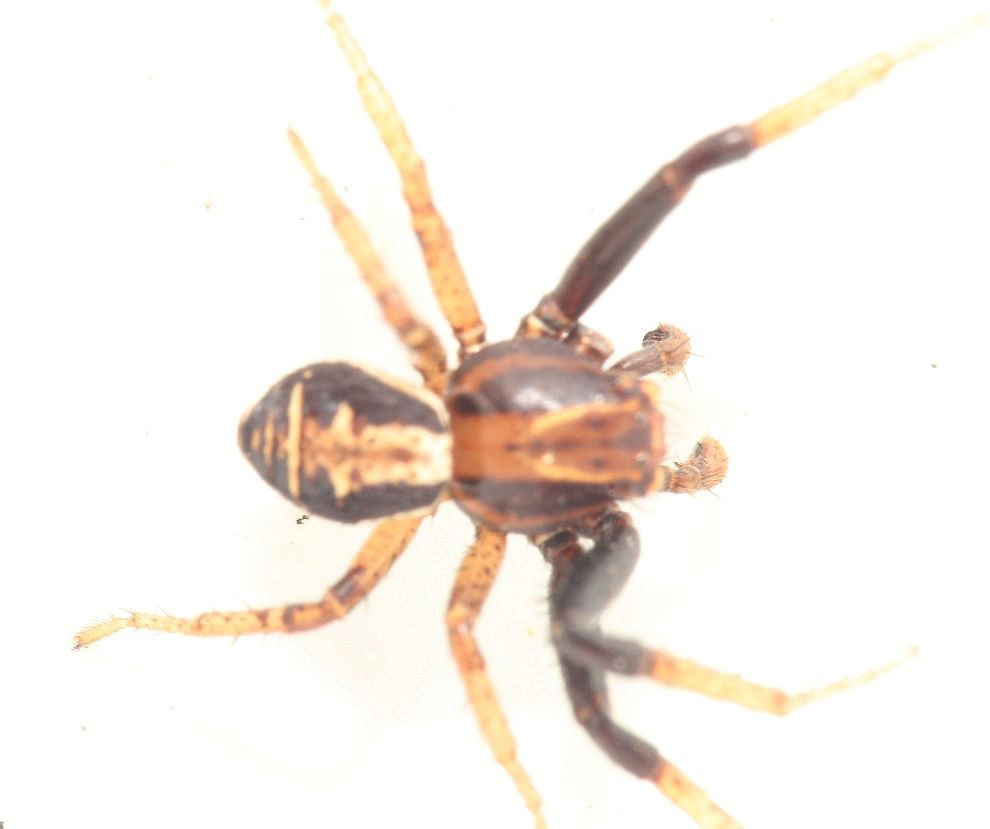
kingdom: Animalia
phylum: Arthropoda
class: Arachnida
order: Araneae
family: Thomisidae
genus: Xysticus
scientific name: Xysticus ulmi
